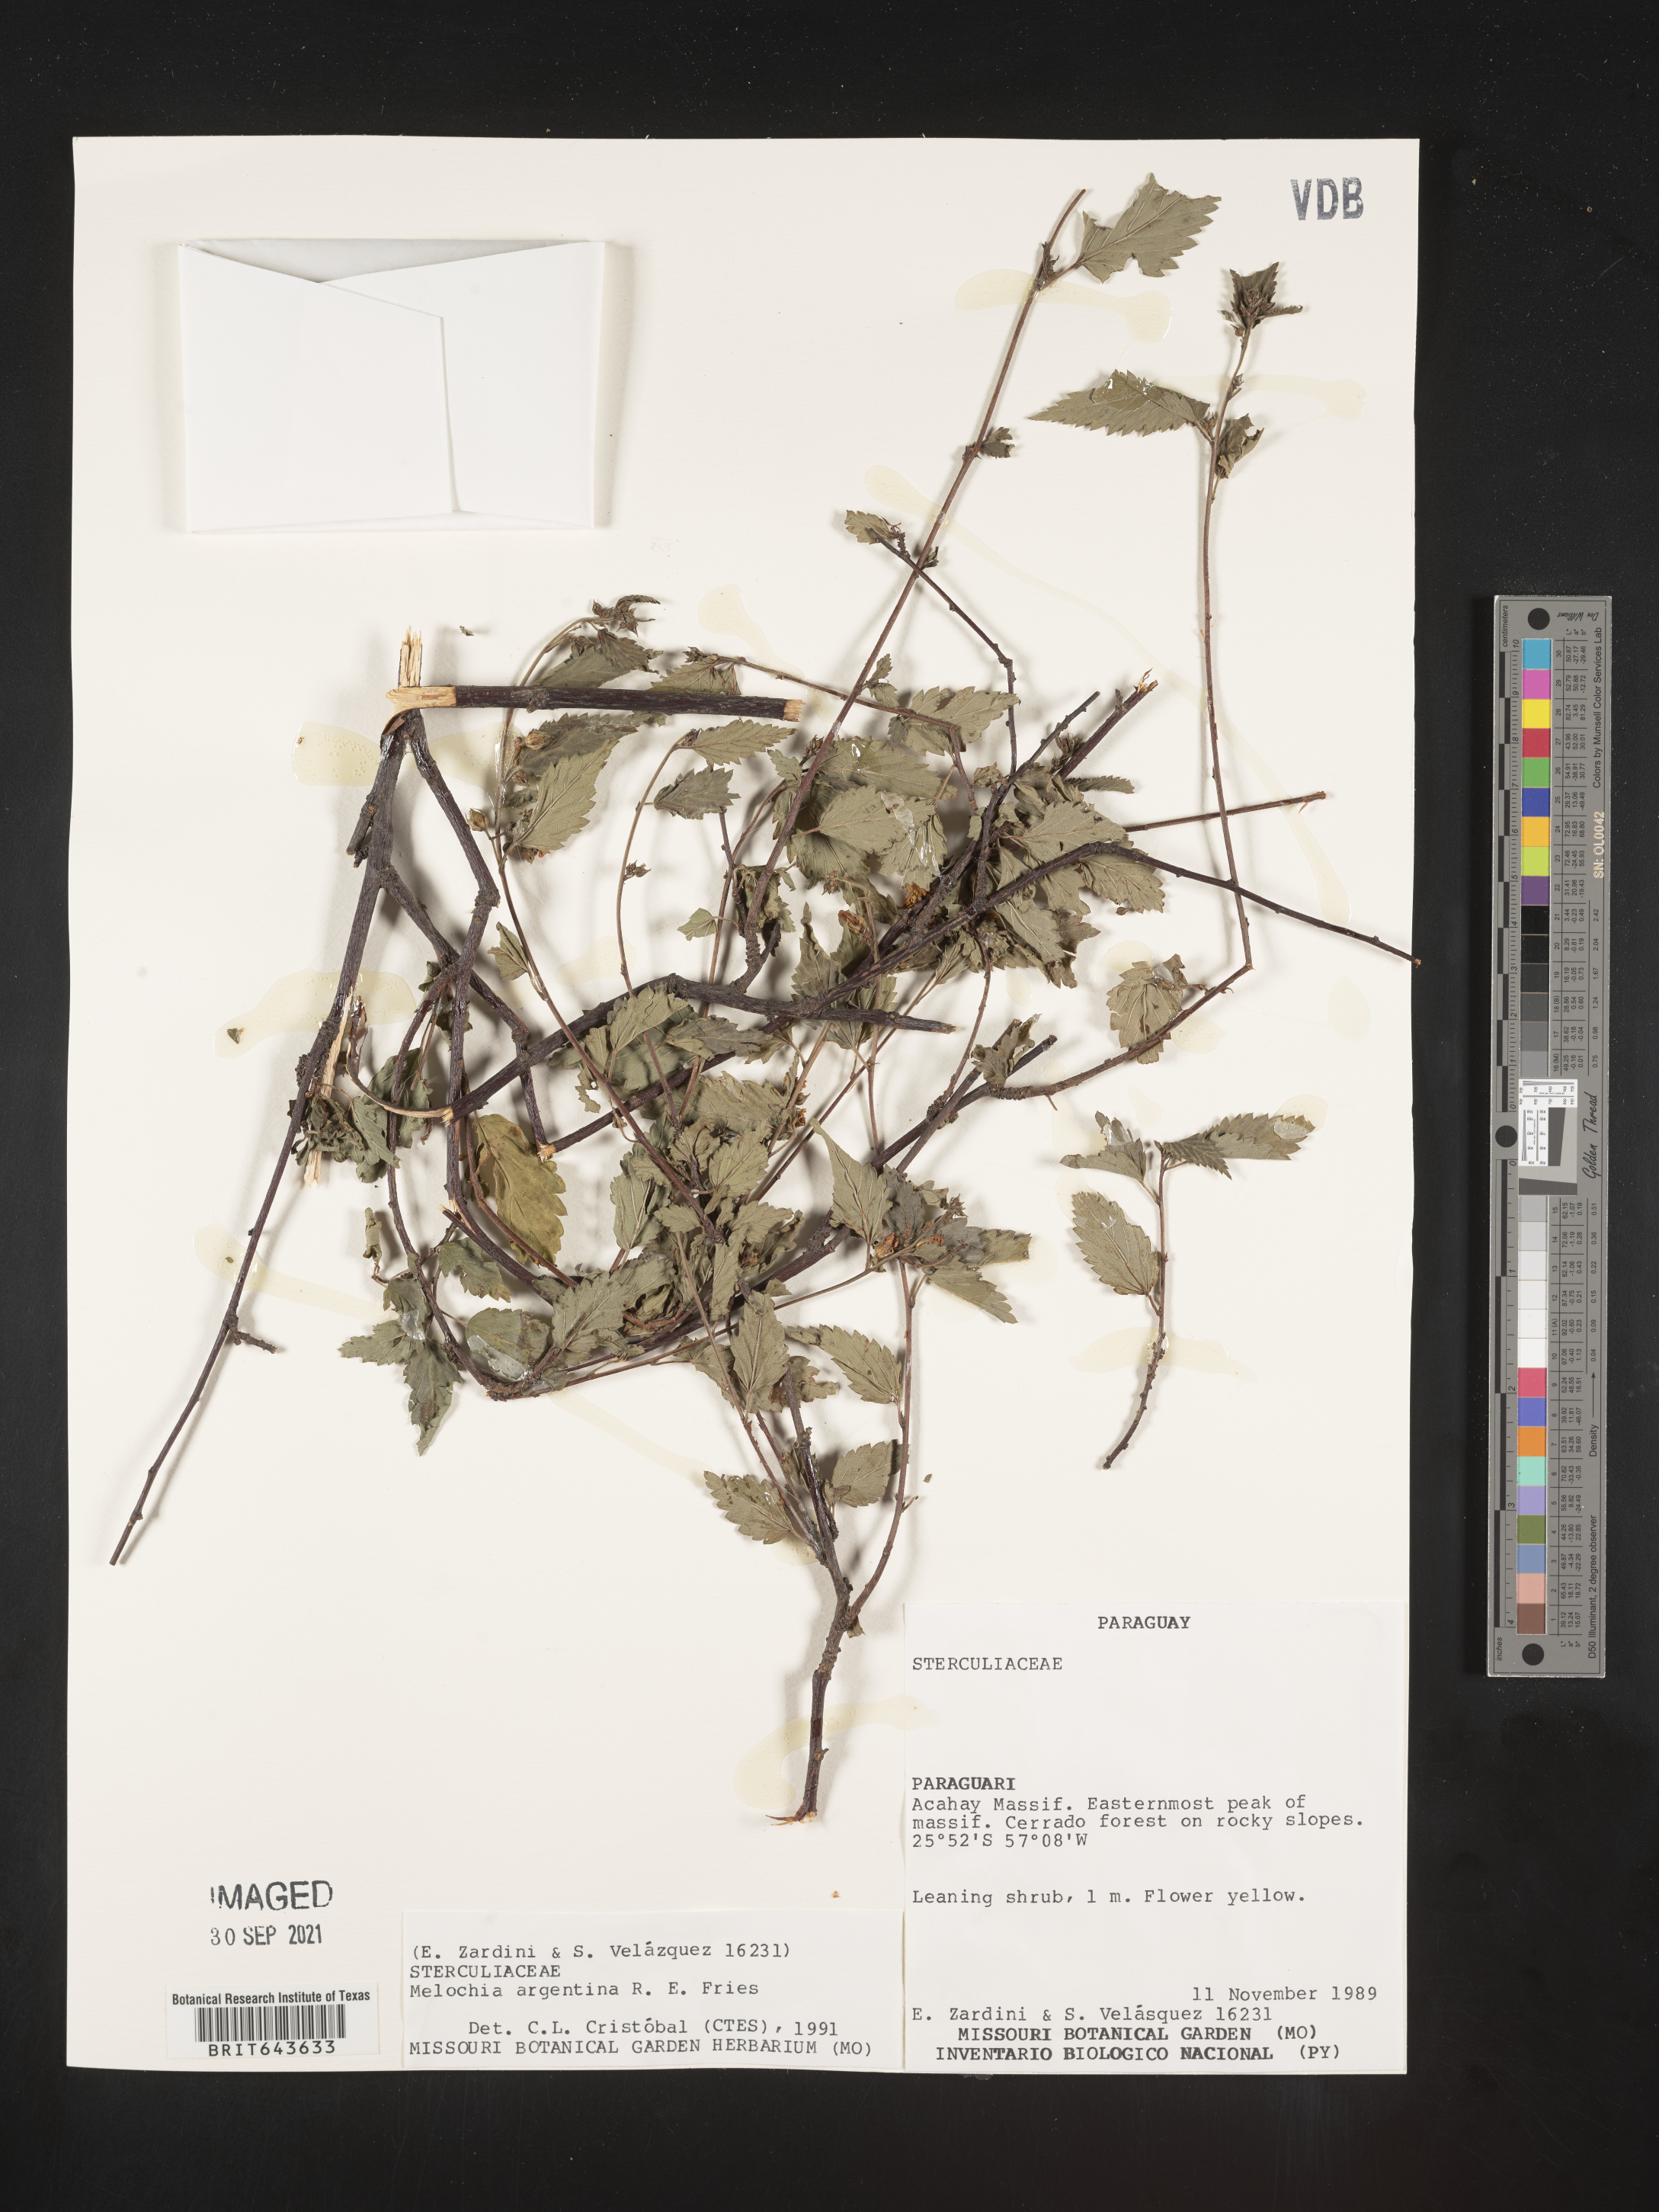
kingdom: Plantae
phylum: Tracheophyta
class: Magnoliopsida
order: Malvales
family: Malvaceae
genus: Melochia
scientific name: Melochia
